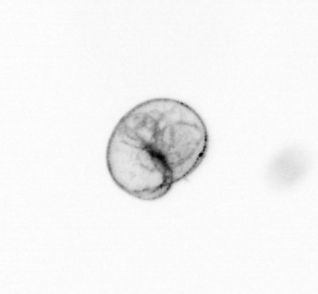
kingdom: Chromista
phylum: Myzozoa
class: Dinophyceae
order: Noctilucales
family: Noctilucaceae
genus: Noctiluca
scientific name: Noctiluca scintillans
